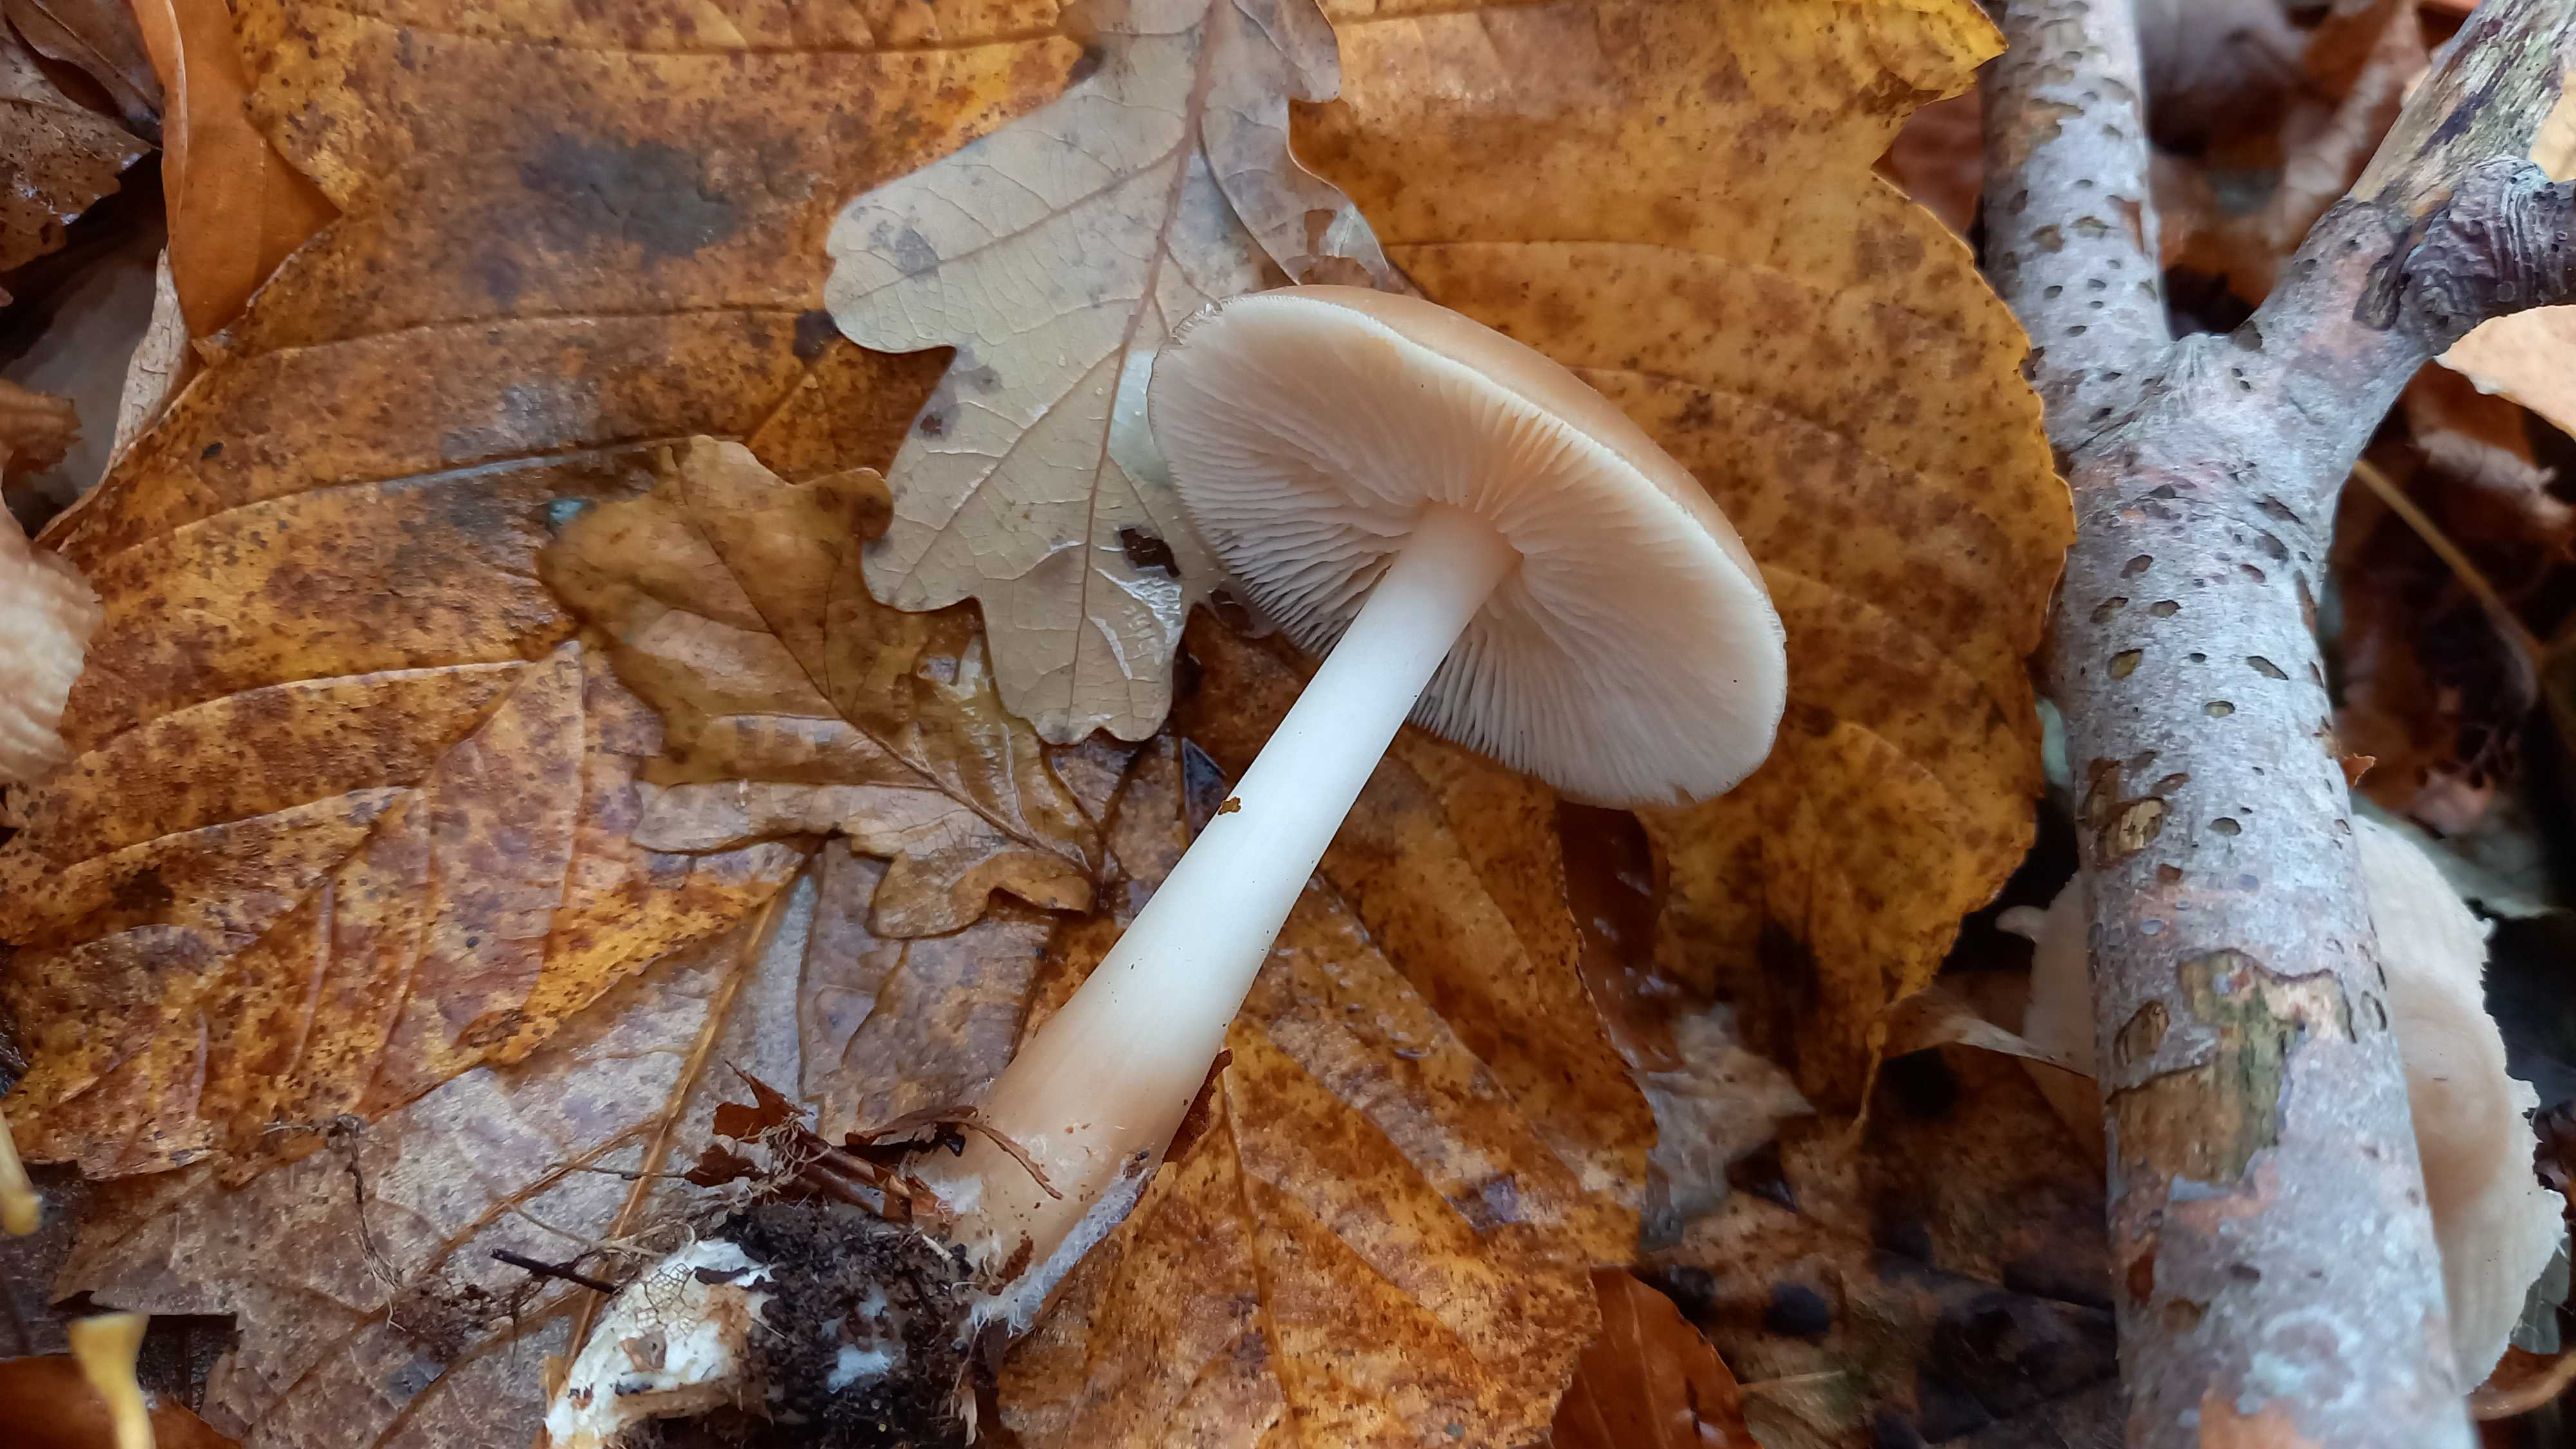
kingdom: Fungi
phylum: Basidiomycota
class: Agaricomycetes
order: Agaricales
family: Omphalotaceae
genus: Gymnopus
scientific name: Gymnopus dryophilus
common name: løv-fladhat
